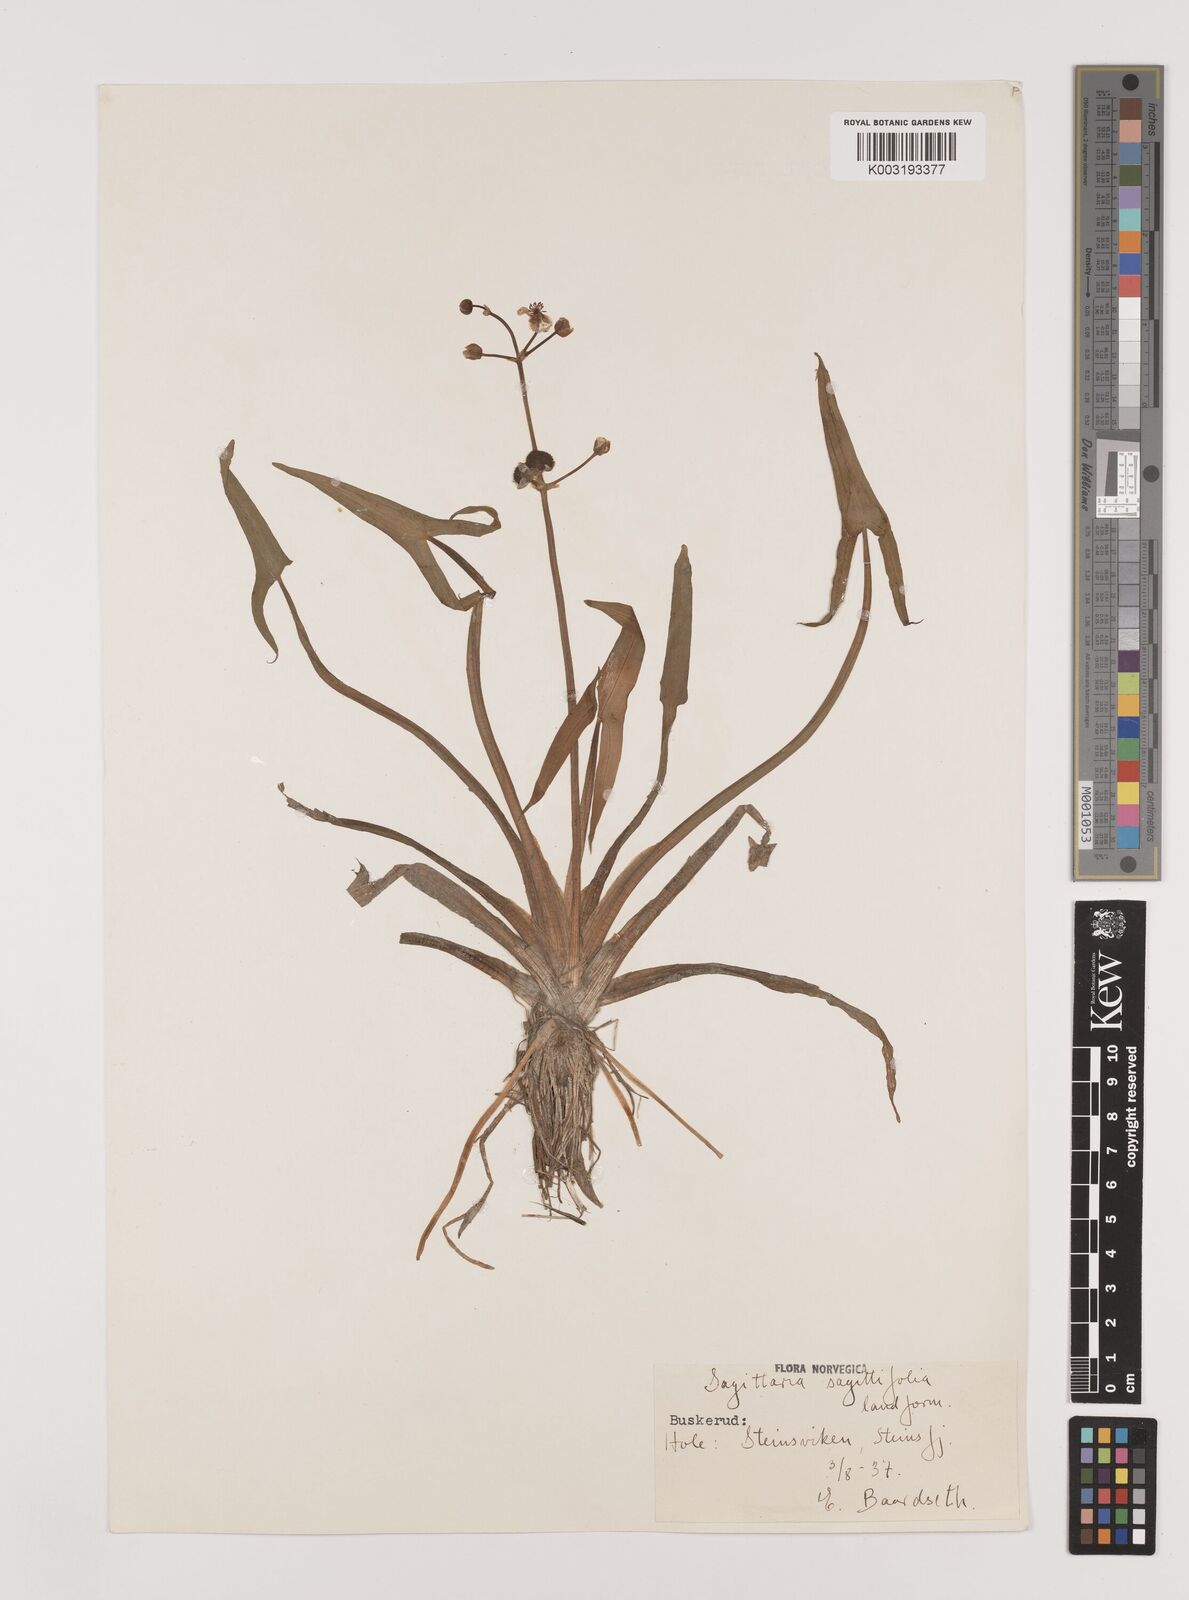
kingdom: Plantae
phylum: Tracheophyta
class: Liliopsida
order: Alismatales
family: Alismataceae
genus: Sagittaria
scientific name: Sagittaria sagittifolia
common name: Arrowhead
